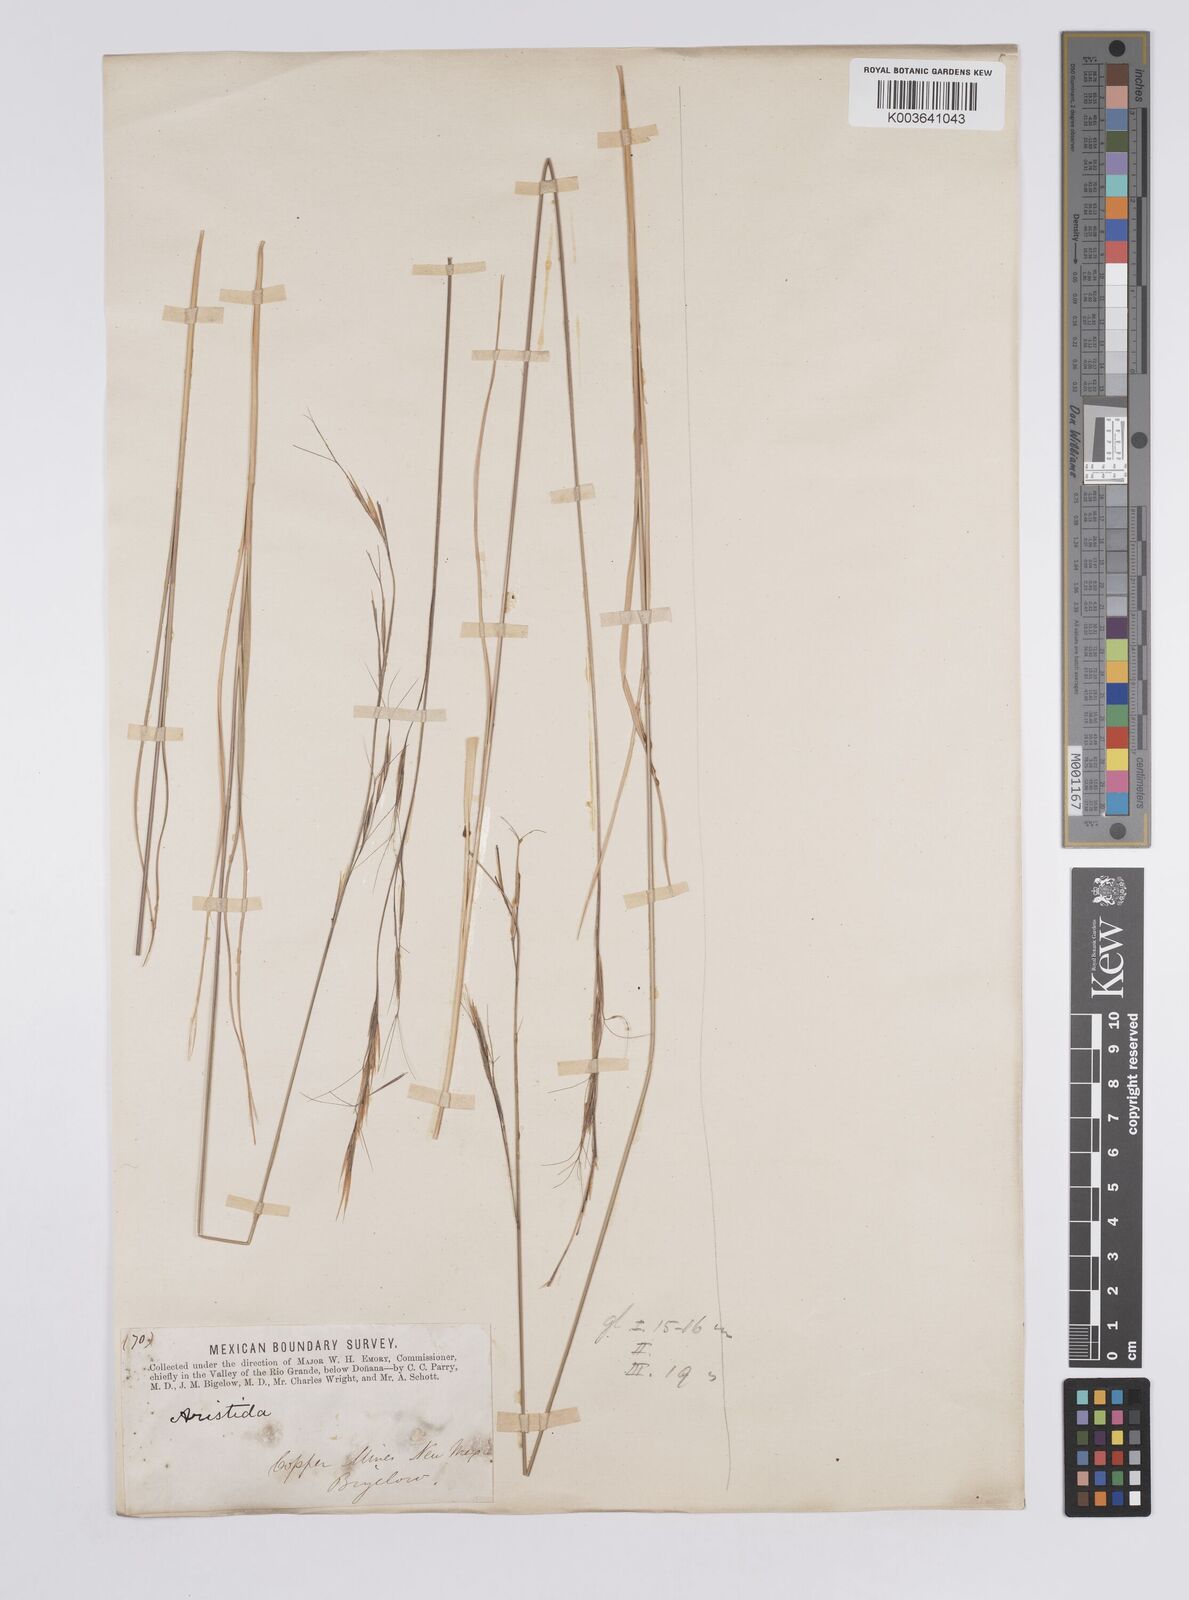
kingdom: Plantae
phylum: Tracheophyta
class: Liliopsida
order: Poales
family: Poaceae
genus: Aristida
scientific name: Aristida arizonica
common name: Arizona threeawn
